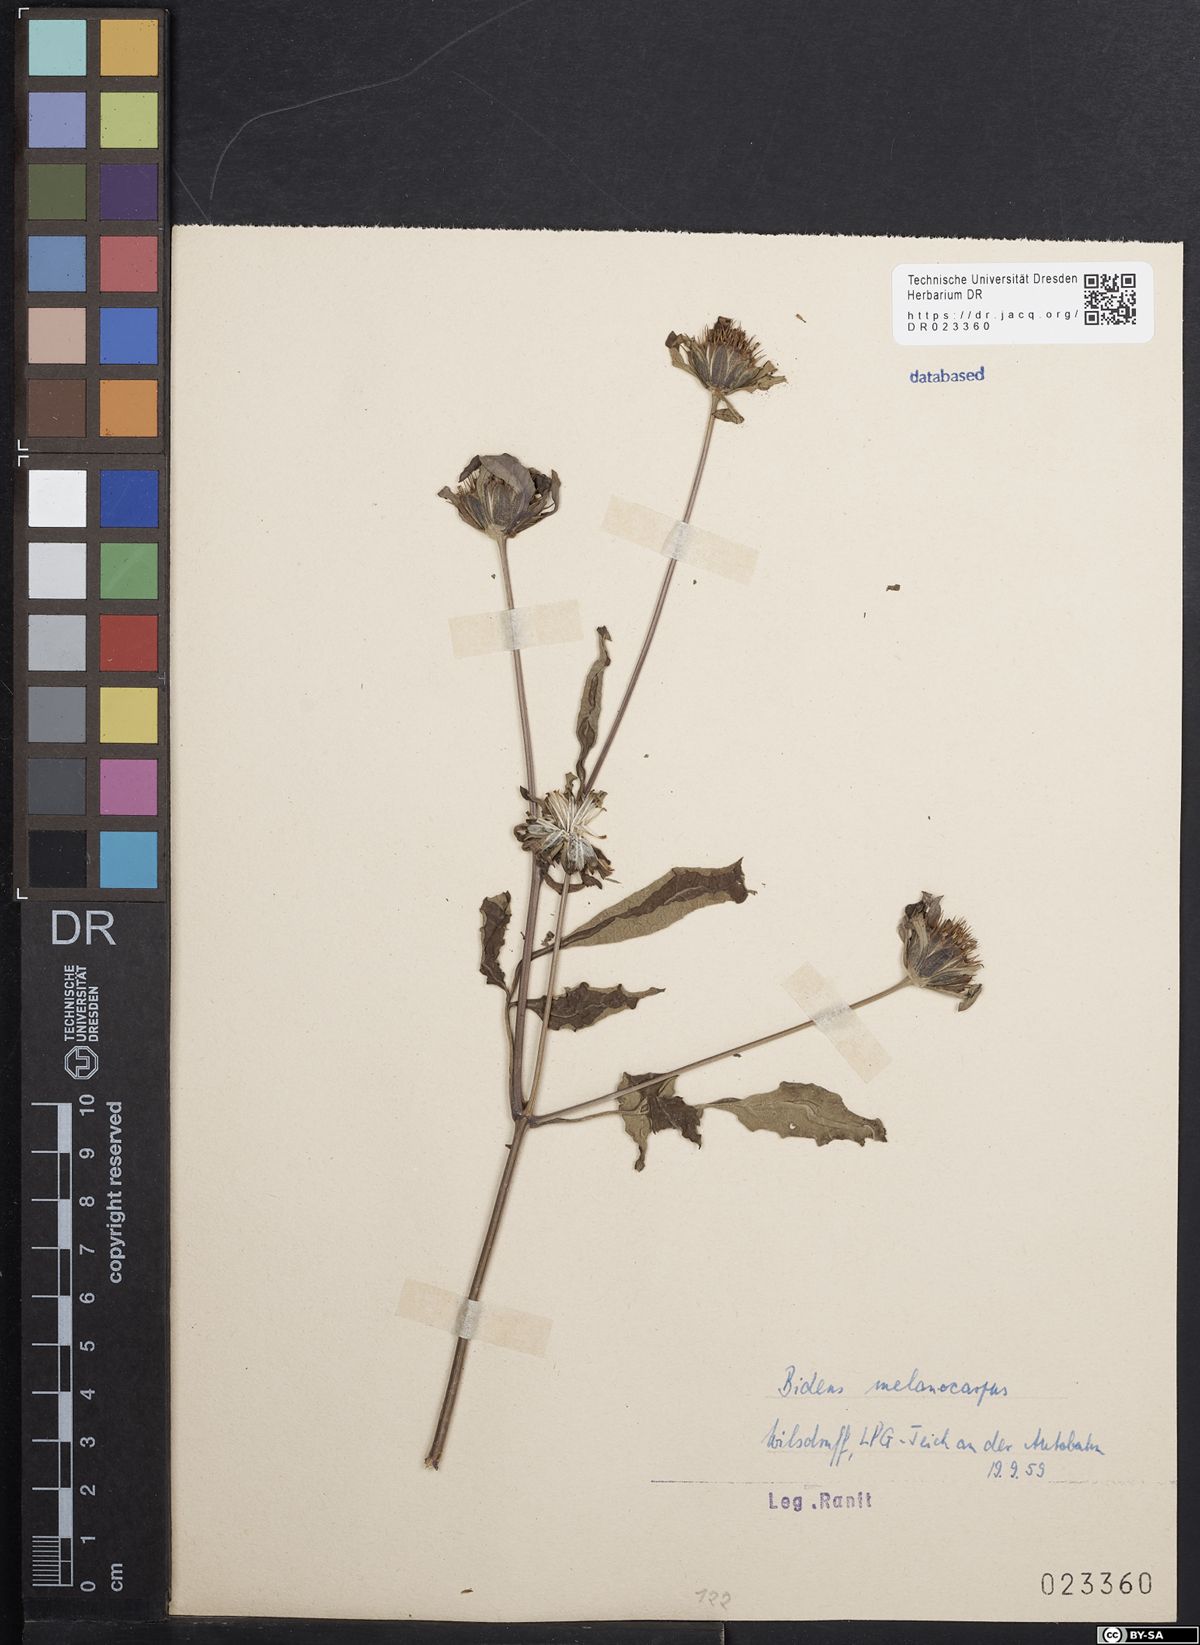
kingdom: Plantae
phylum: Tracheophyta
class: Magnoliopsida
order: Asterales
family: Asteraceae
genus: Bidens
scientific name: Bidens frondosa
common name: Beggarticks
